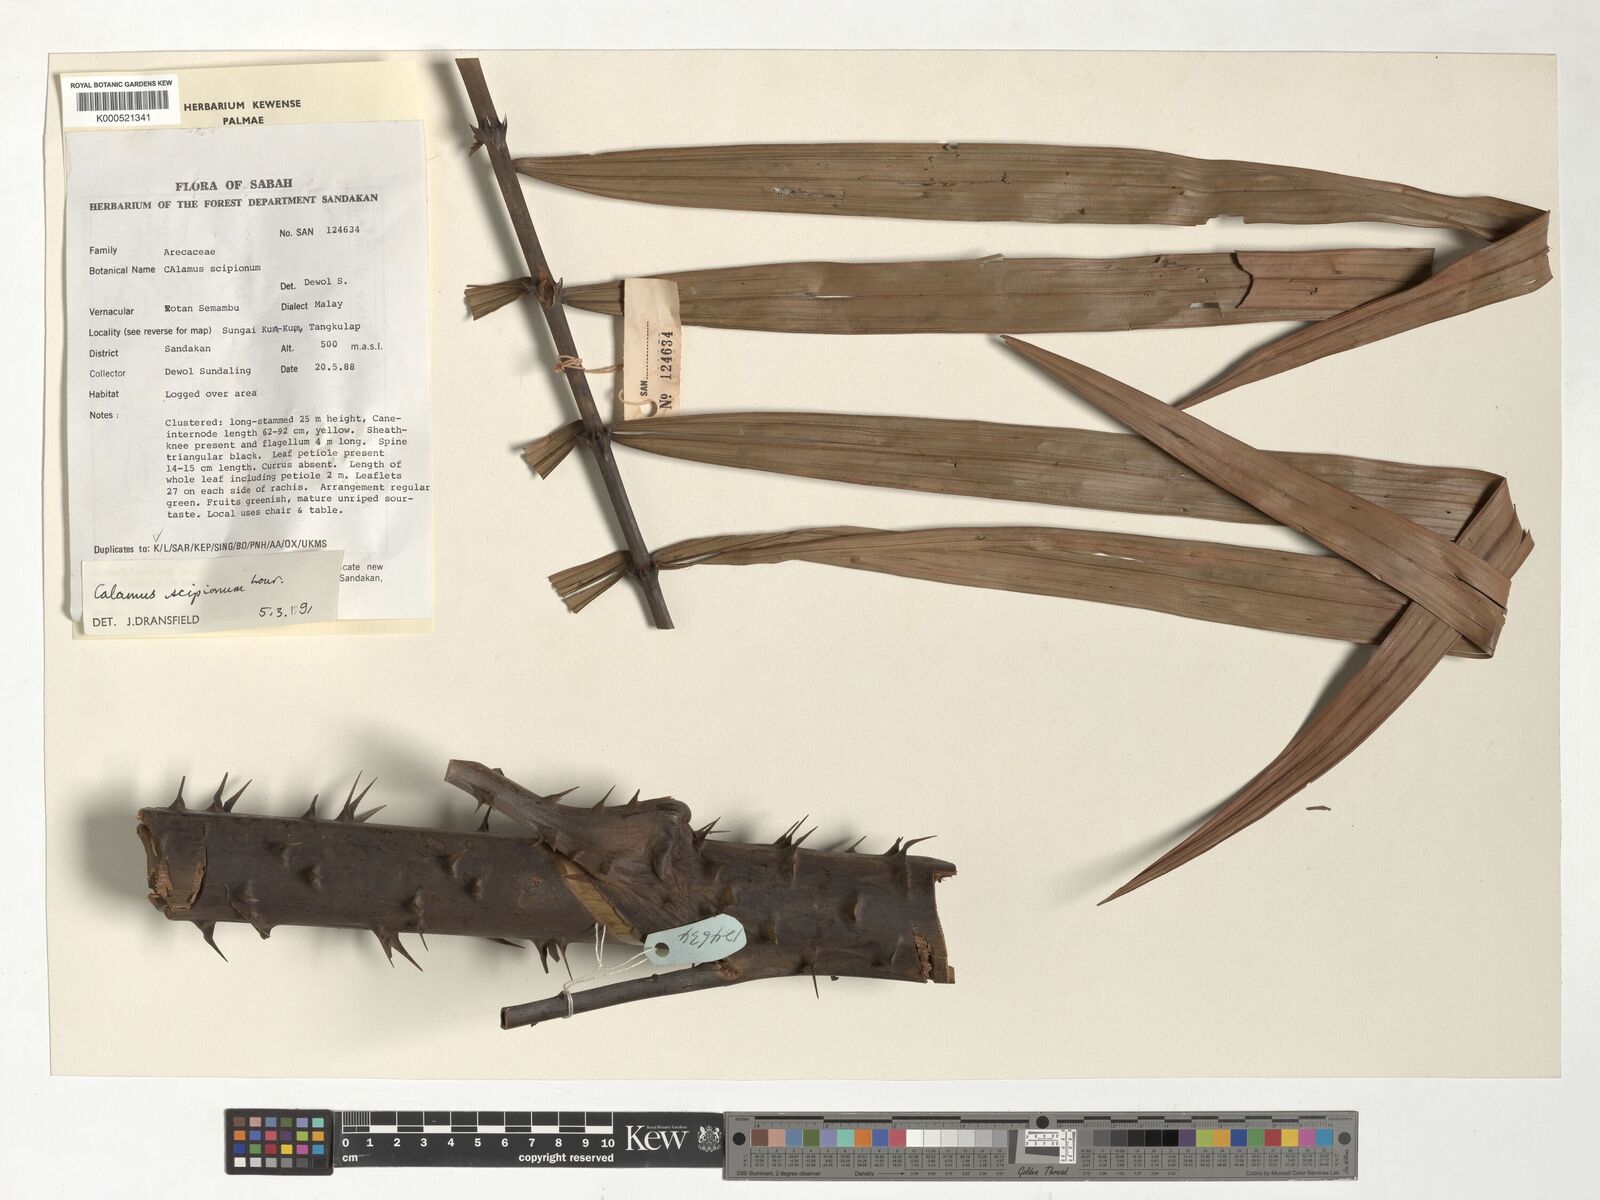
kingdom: Plantae
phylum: Tracheophyta
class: Liliopsida
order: Arecales
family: Arecaceae
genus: Calamus
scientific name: Calamus scipionum
